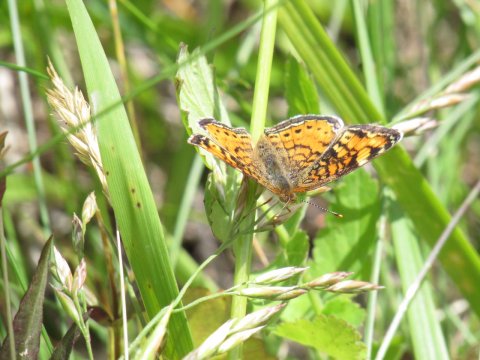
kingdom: Animalia
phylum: Arthropoda
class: Insecta
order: Lepidoptera
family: Nymphalidae
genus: Phyciodes
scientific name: Phyciodes
